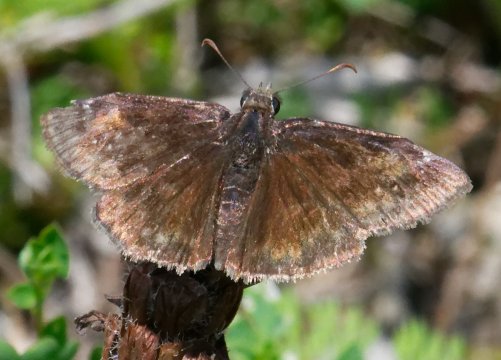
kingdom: Animalia
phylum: Arthropoda
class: Insecta
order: Lepidoptera
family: Hesperiidae
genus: Gesta
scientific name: Gesta
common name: Wild Indigo Duskywing
